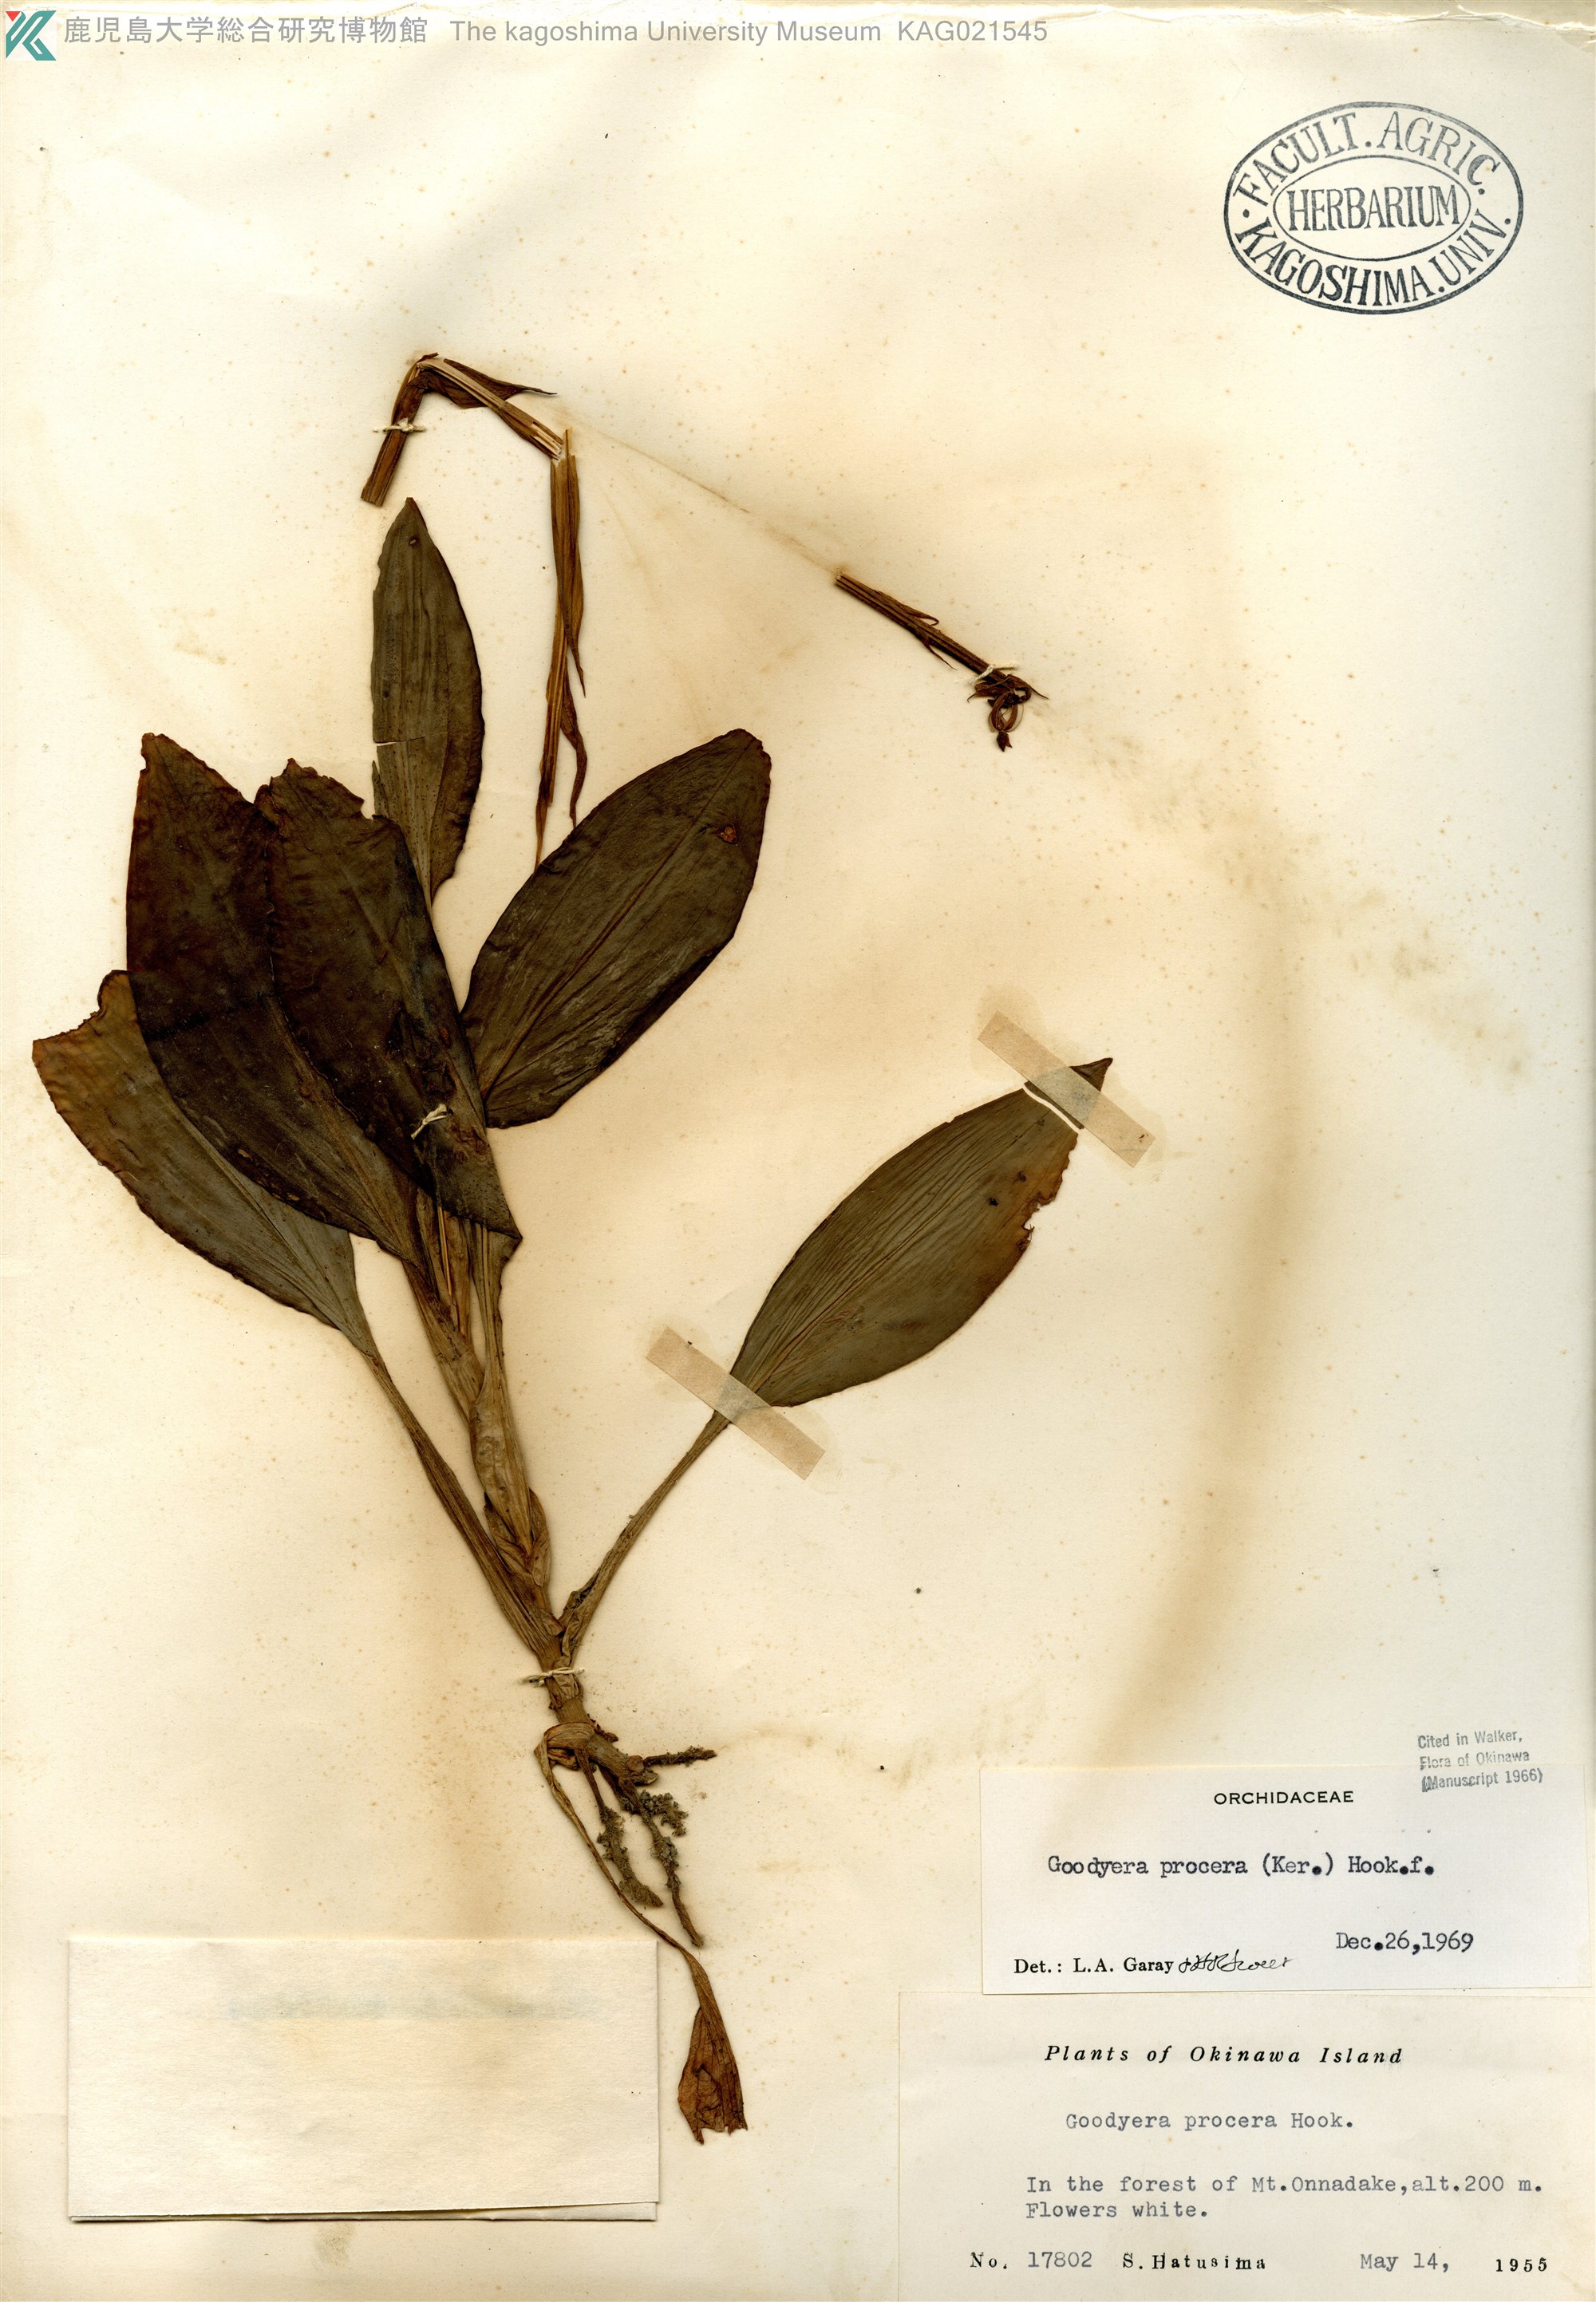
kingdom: Plantae
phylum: Tracheophyta
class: Liliopsida
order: Asparagales
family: Orchidaceae
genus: Goodyera
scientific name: Goodyera procera
